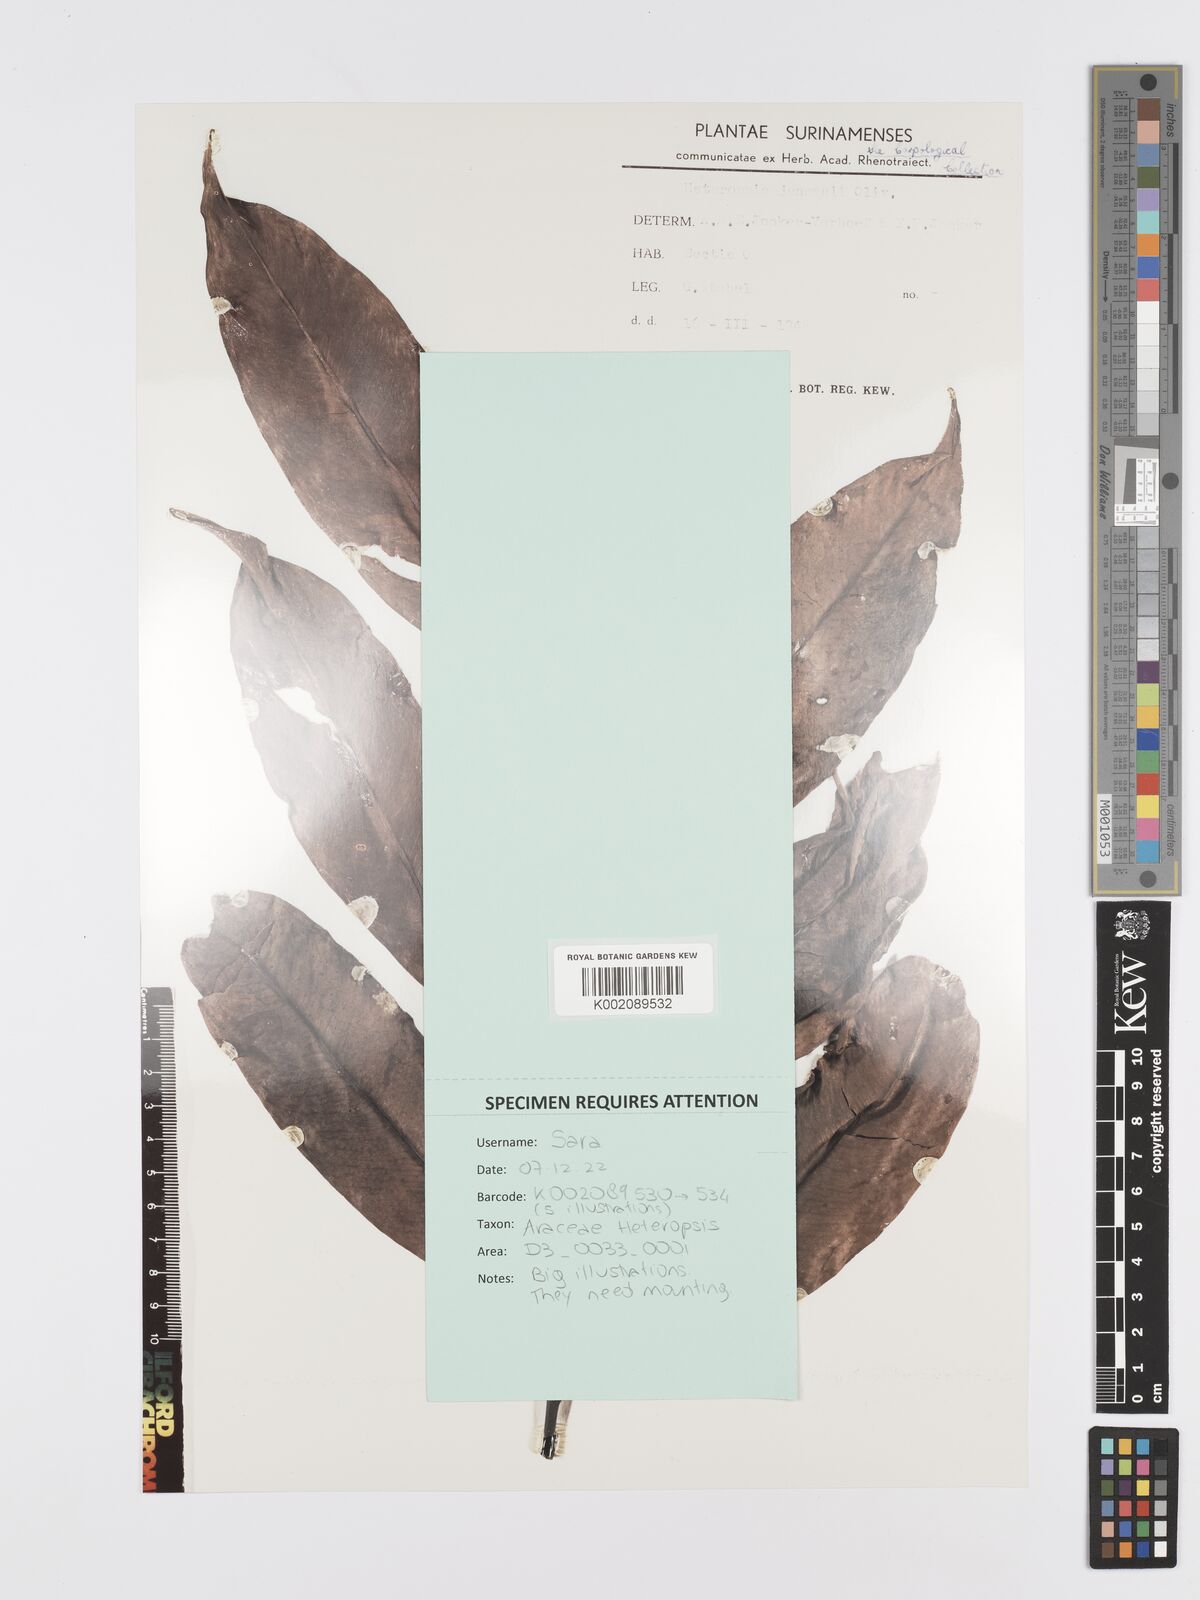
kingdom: Plantae
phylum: Tracheophyta
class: Liliopsida
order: Alismatales
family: Araceae
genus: Heteropsis
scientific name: Heteropsis flexuosa
